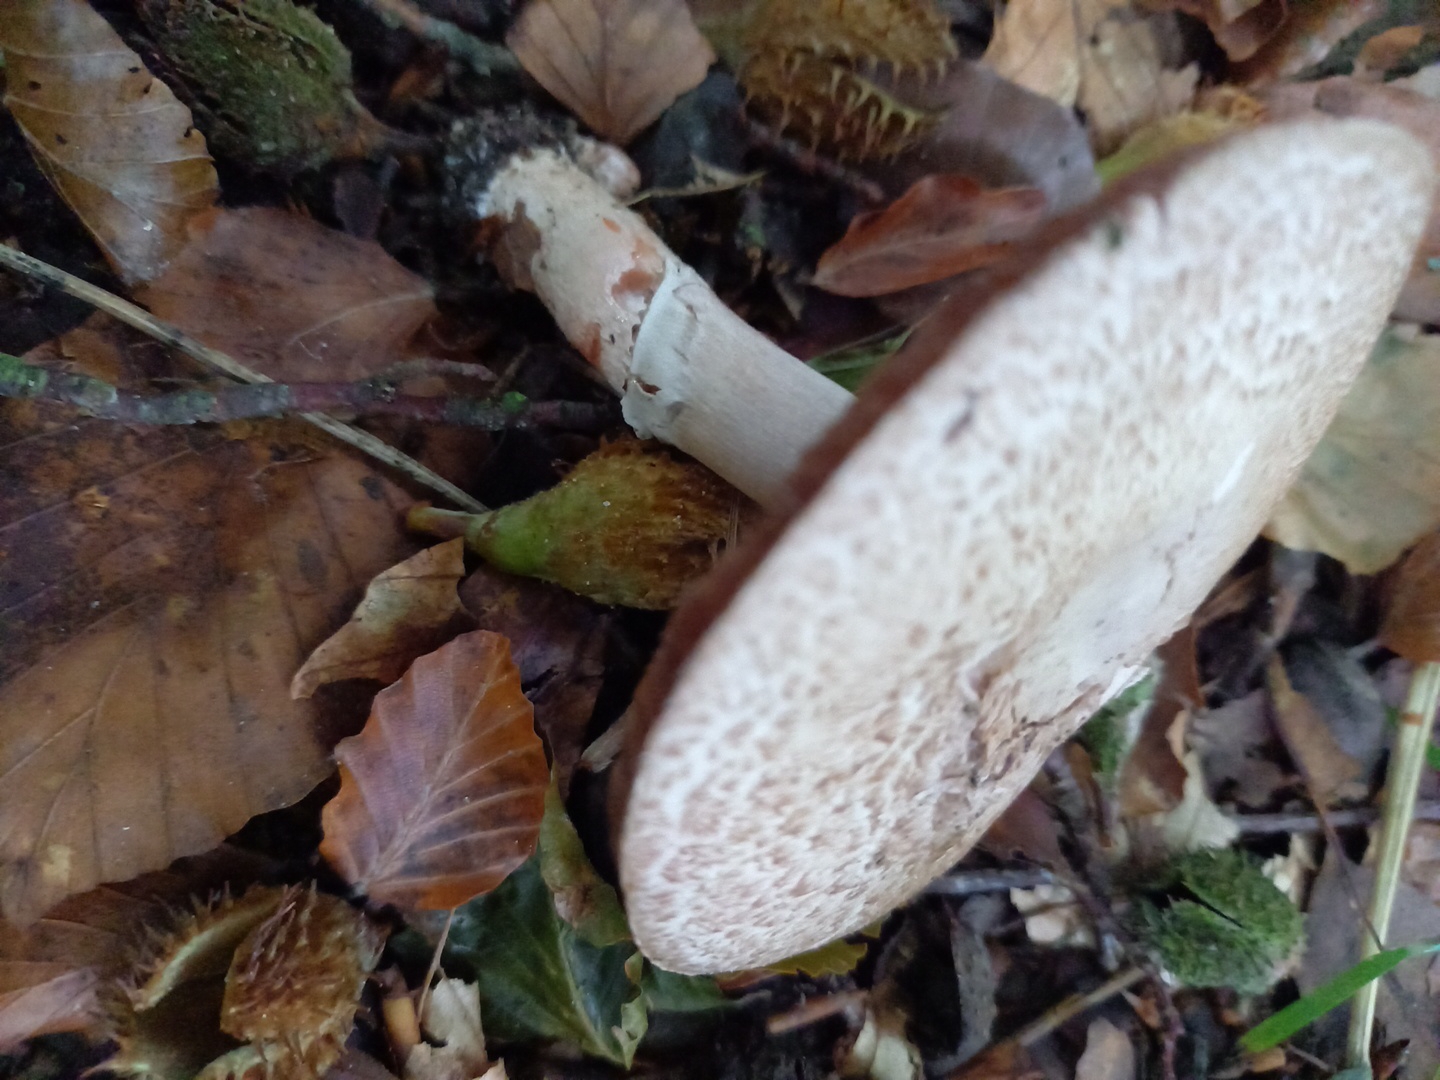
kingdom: Fungi
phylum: Basidiomycota
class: Agaricomycetes
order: Agaricales
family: Agaricaceae
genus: Agaricus
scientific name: Agaricus
